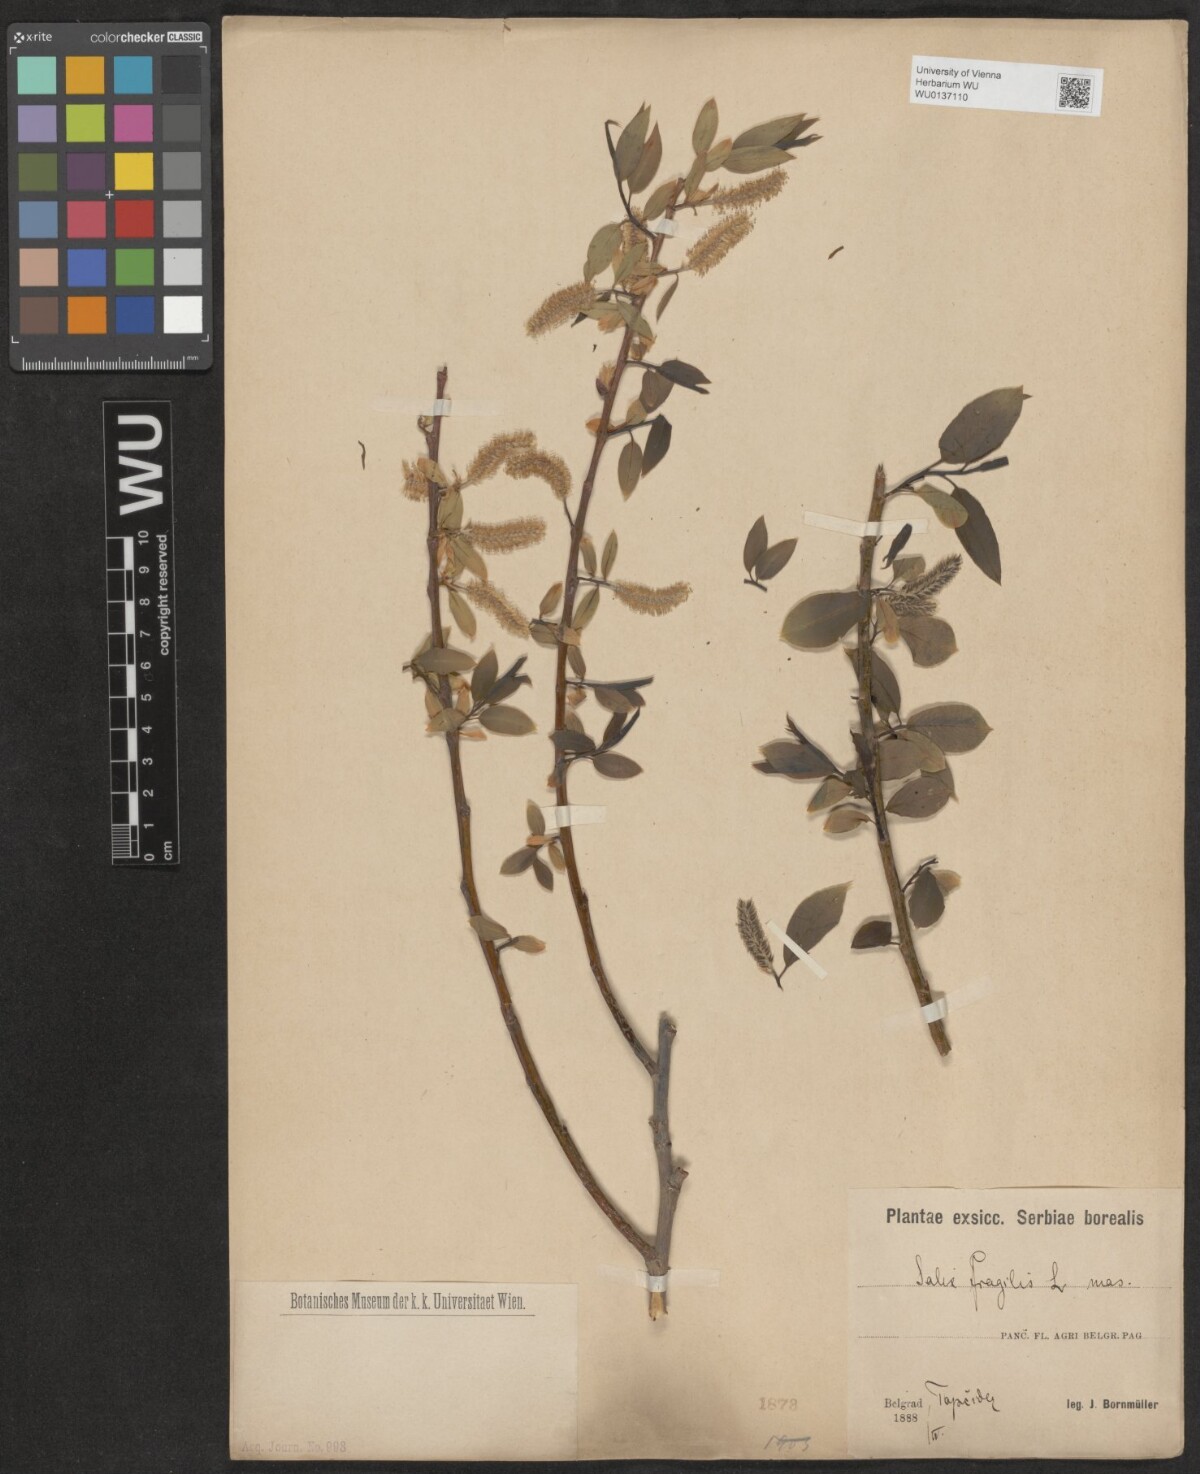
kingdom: Plantae
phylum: Tracheophyta
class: Magnoliopsida
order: Malpighiales
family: Salicaceae
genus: Salix
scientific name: Salix fragilis
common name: Crack willow
